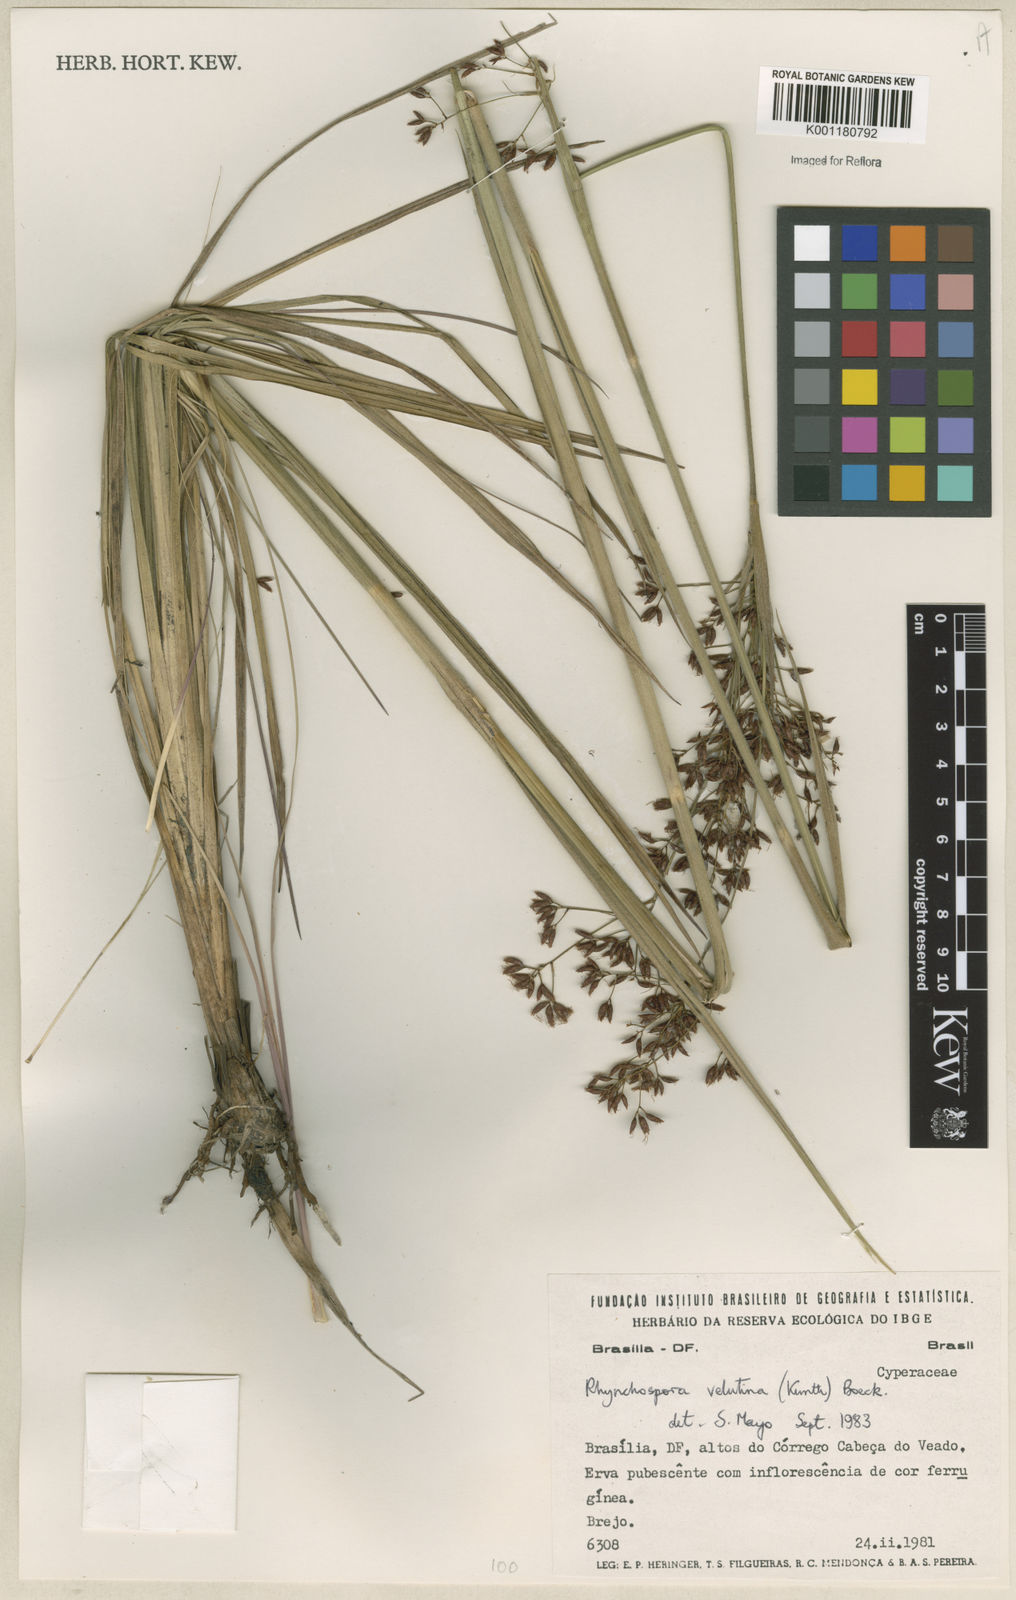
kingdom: Plantae
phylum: Tracheophyta
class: Liliopsida
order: Poales
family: Cyperaceae
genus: Rhynchospora
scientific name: Rhynchospora velutina
